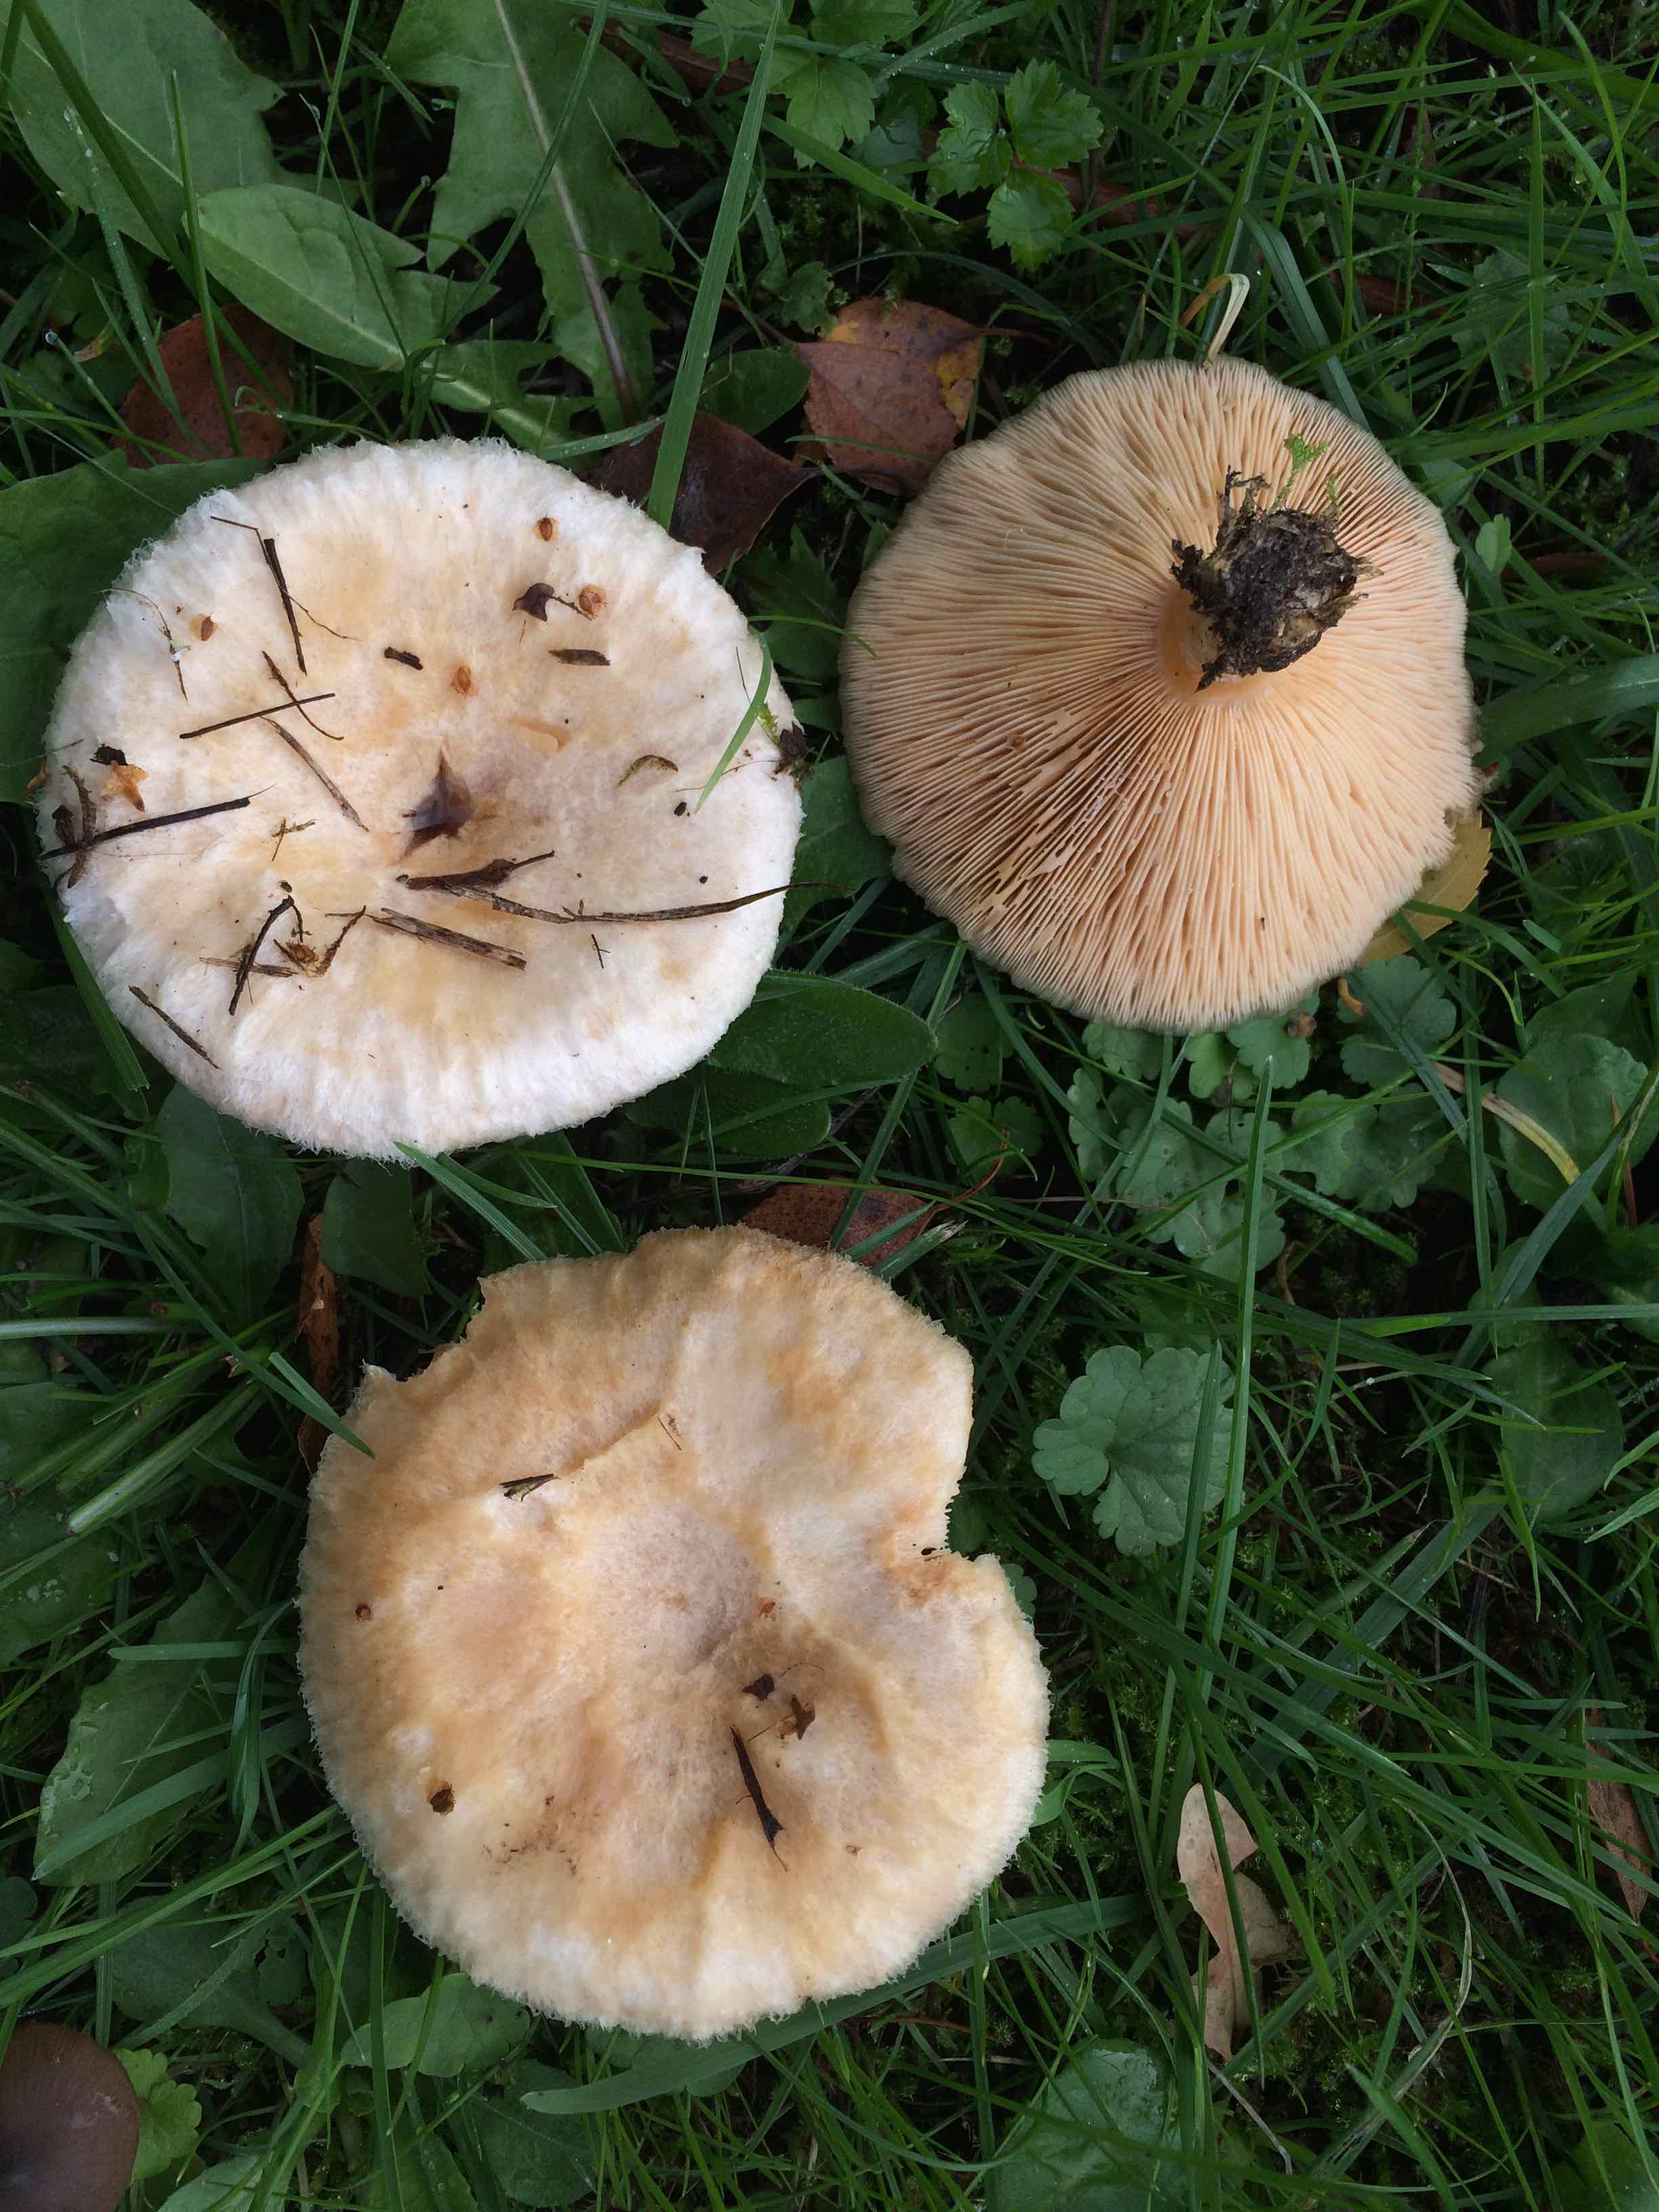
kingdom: Fungi
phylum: Basidiomycota
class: Agaricomycetes
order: Russulales
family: Russulaceae
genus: Lactarius
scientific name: Lactarius torminosus
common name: skægget mælkehat
